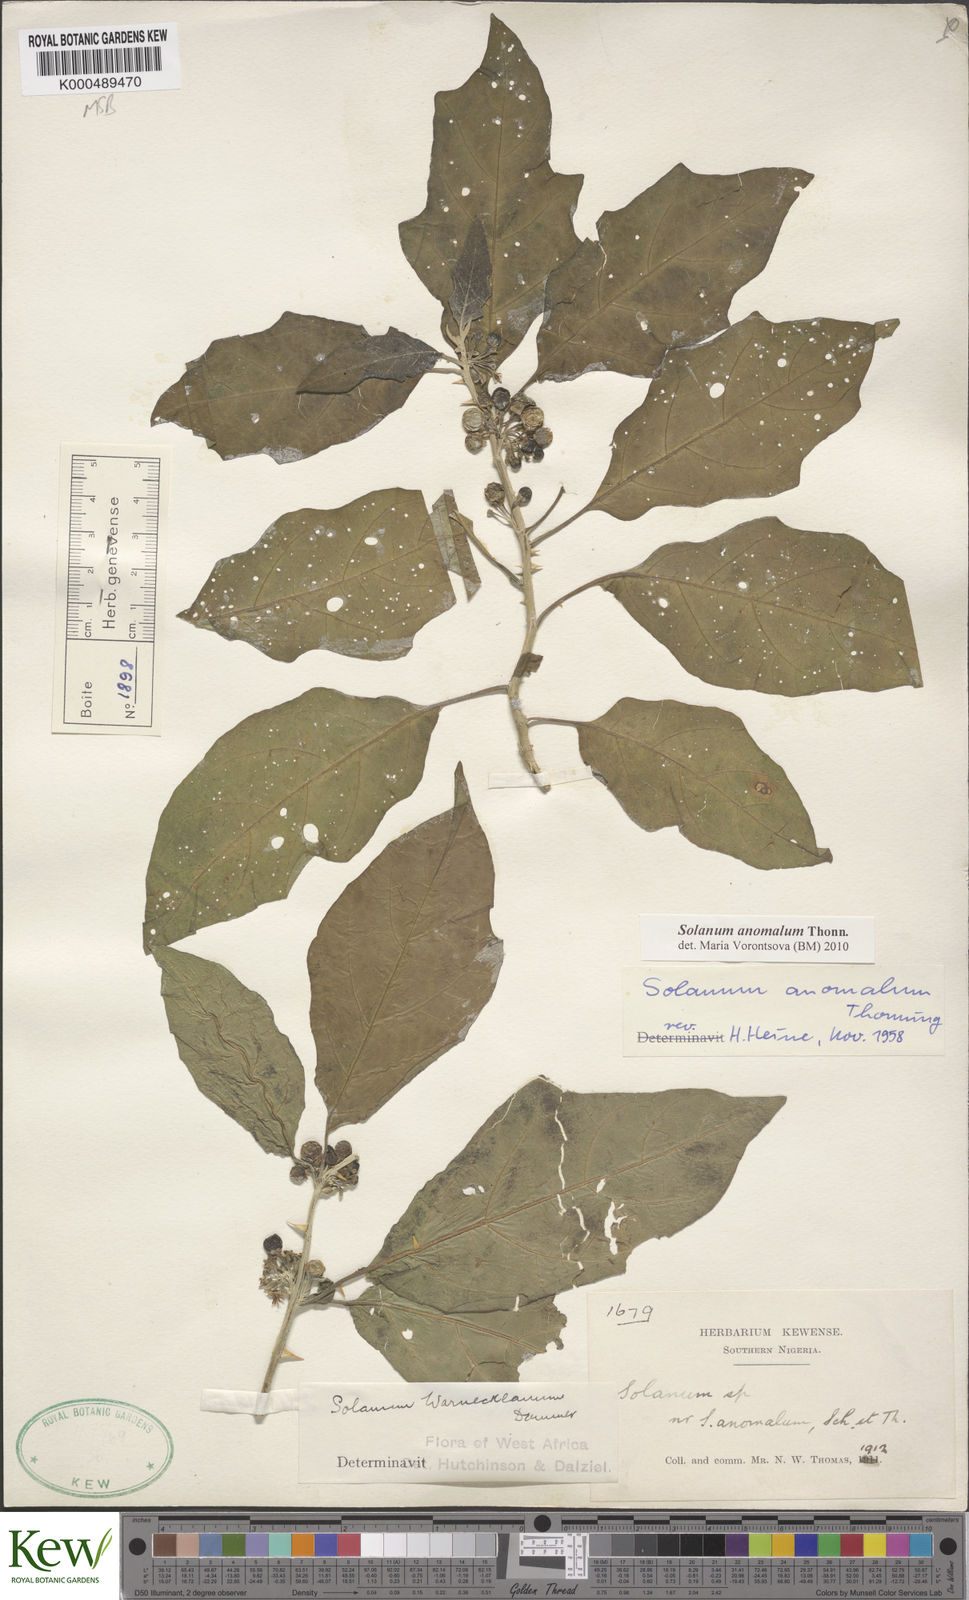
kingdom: Plantae
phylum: Tracheophyta
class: Magnoliopsida
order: Solanales
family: Solanaceae
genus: Solanum
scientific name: Solanum anomalum
